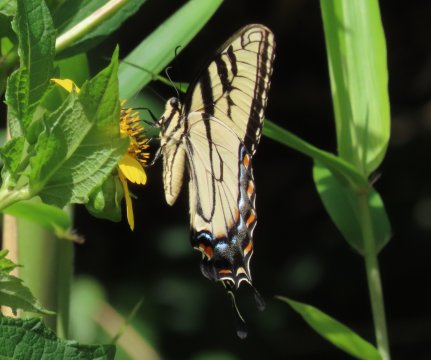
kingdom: Animalia
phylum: Arthropoda
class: Insecta
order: Lepidoptera
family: Papilionidae
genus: Pterourus
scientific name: Pterourus glaucus
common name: Eastern Tiger Swallowtail
